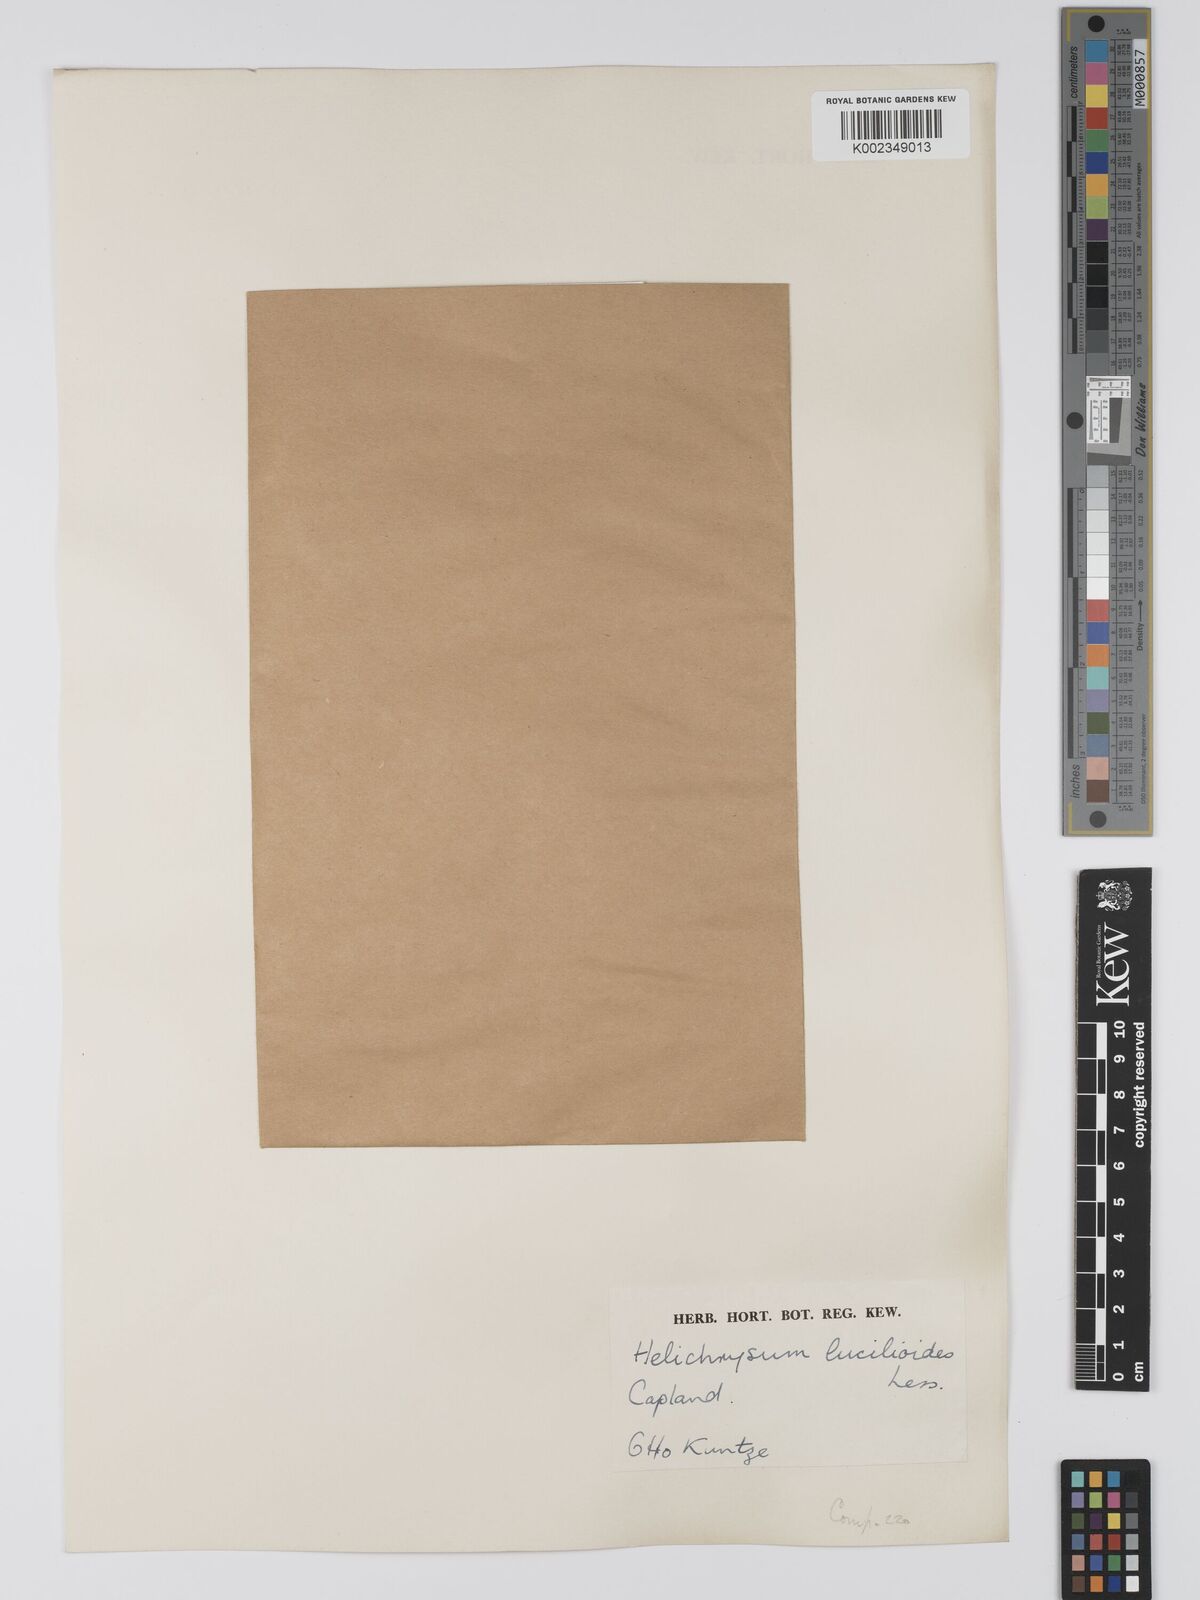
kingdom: Plantae
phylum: Tracheophyta
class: Magnoliopsida
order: Asterales
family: Asteraceae
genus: Helichrysum
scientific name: Helichrysum lucilioides
